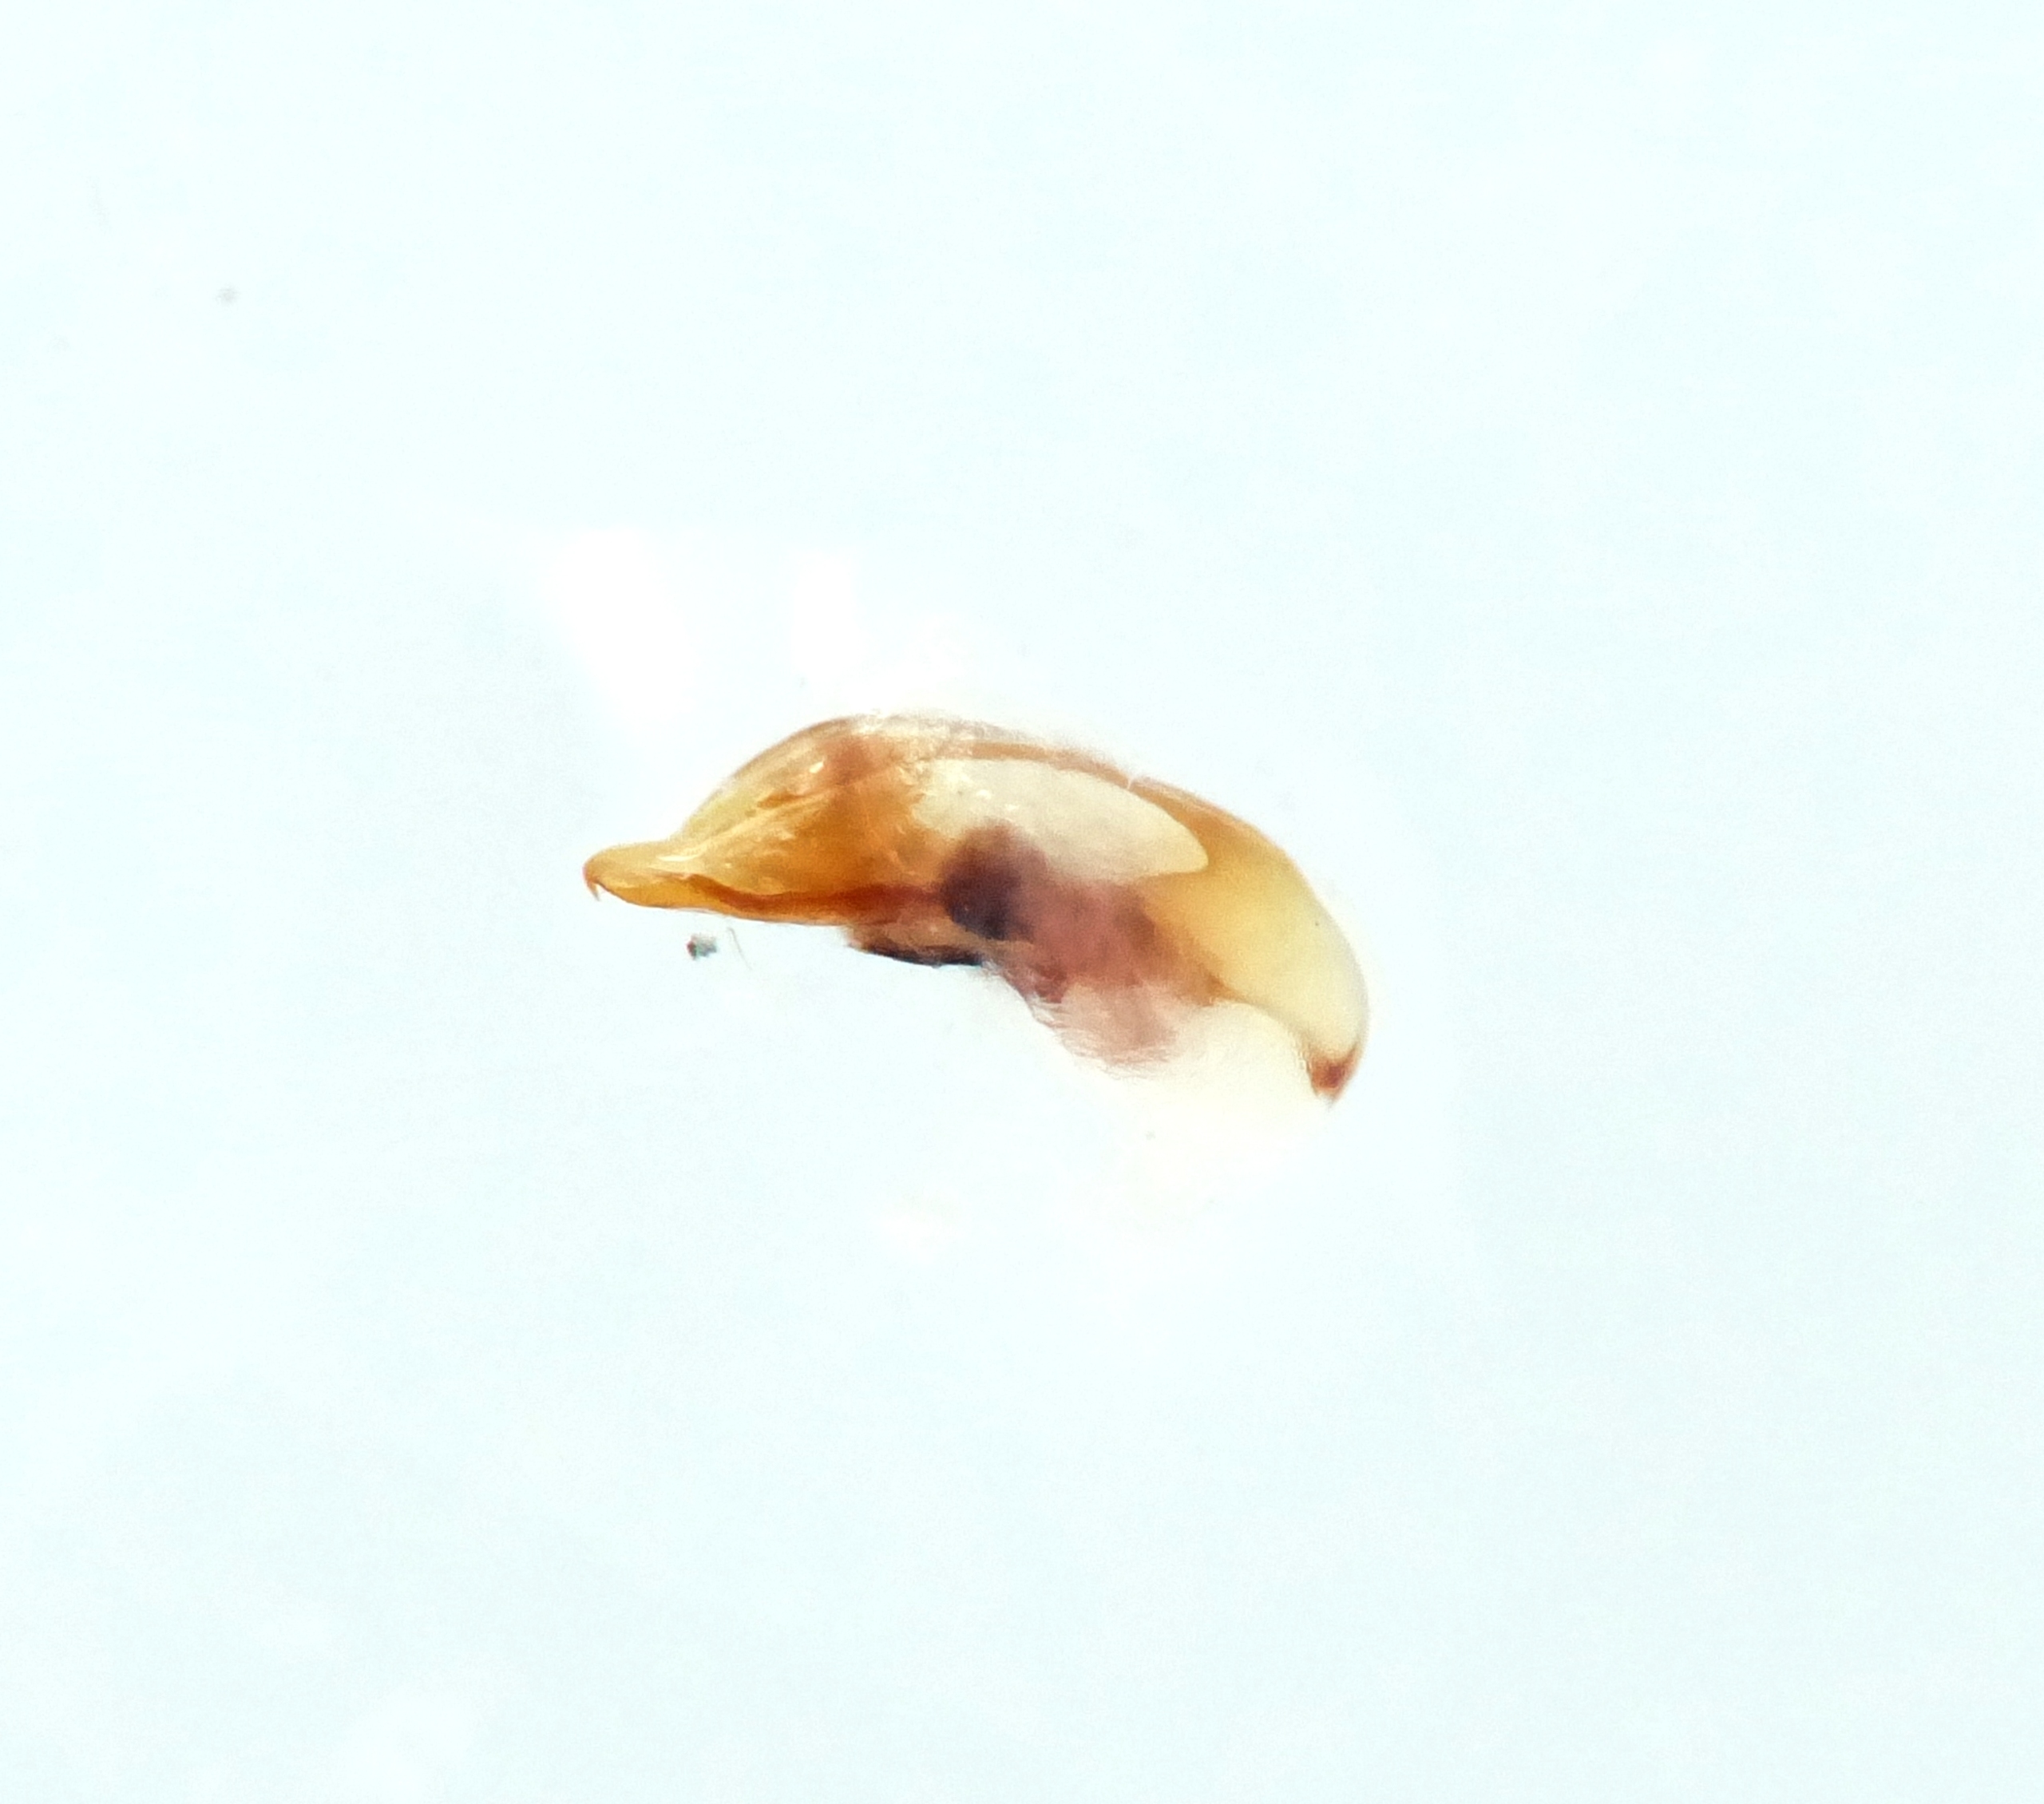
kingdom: Animalia
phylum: Arthropoda
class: Insecta
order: Coleoptera
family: Carabidae
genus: Badister
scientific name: Badister peltatus
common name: Brun sumpløber
